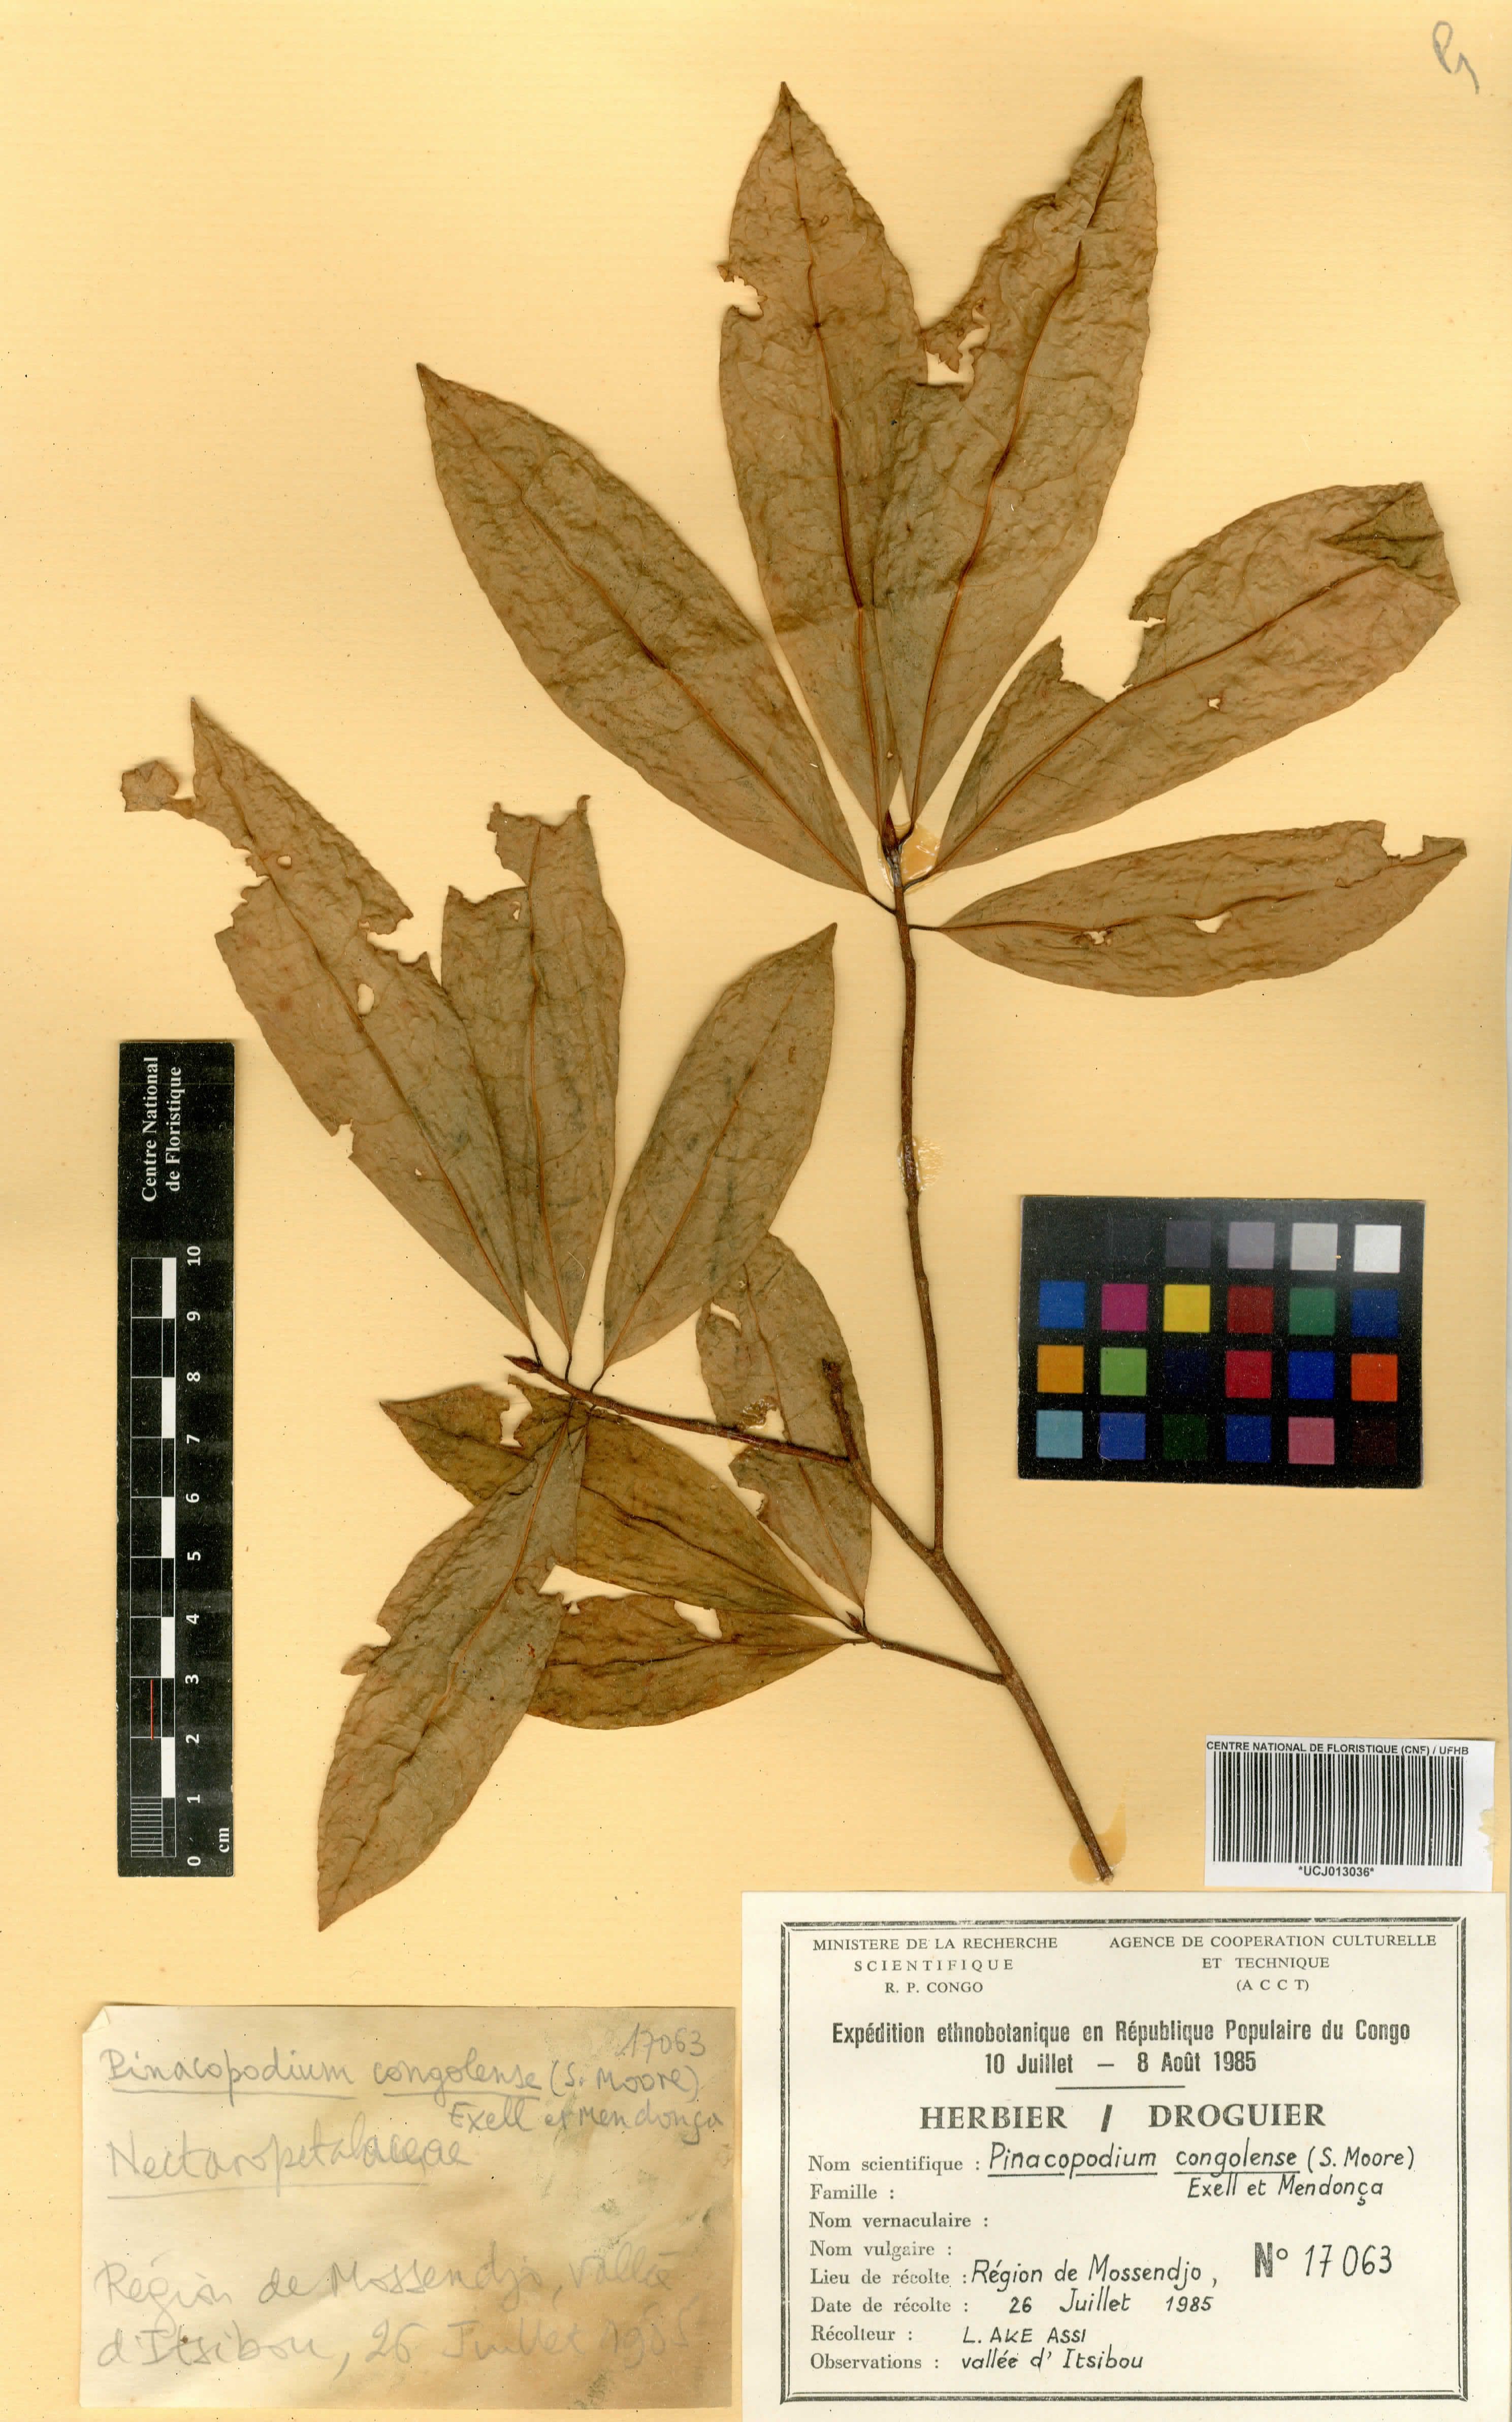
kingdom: Plantae
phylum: Tracheophyta
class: Magnoliopsida
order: Malpighiales
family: Erythroxylaceae
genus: Pinacopodium
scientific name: Pinacopodium congolense
